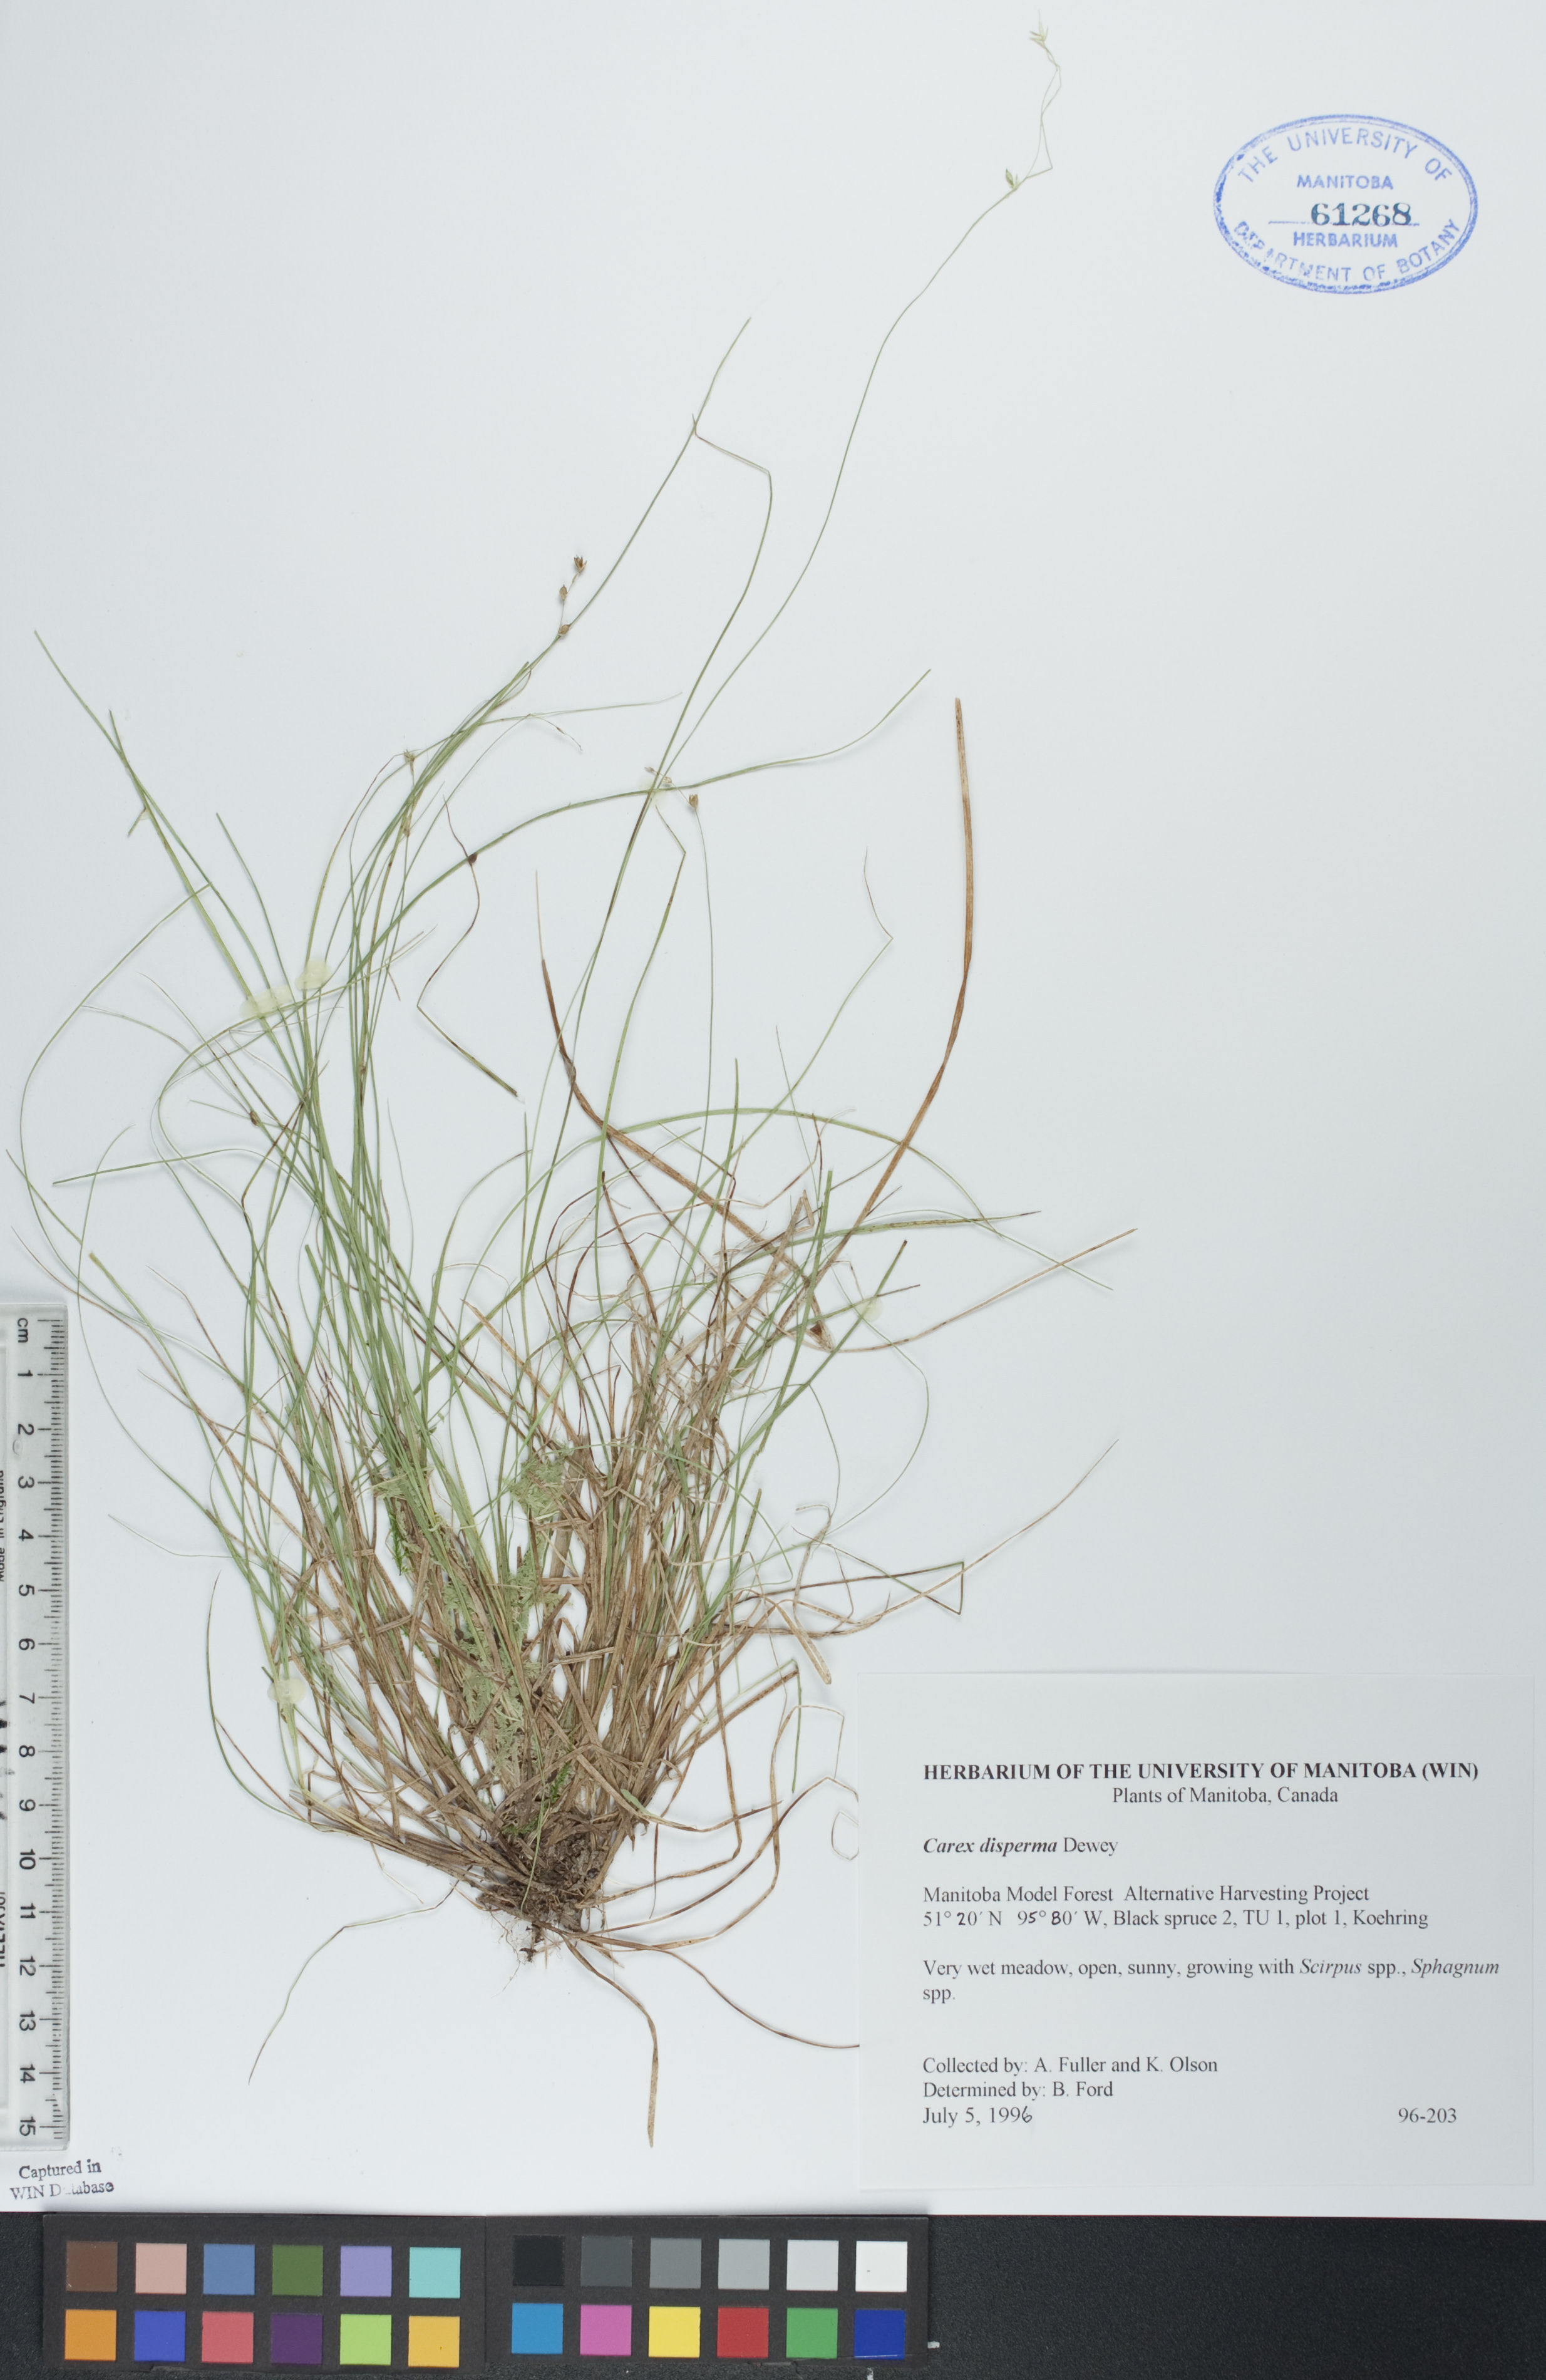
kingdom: Plantae
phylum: Tracheophyta
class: Liliopsida
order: Poales
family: Cyperaceae
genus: Carex
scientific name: Carex disperma
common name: Short-leaved sedge
